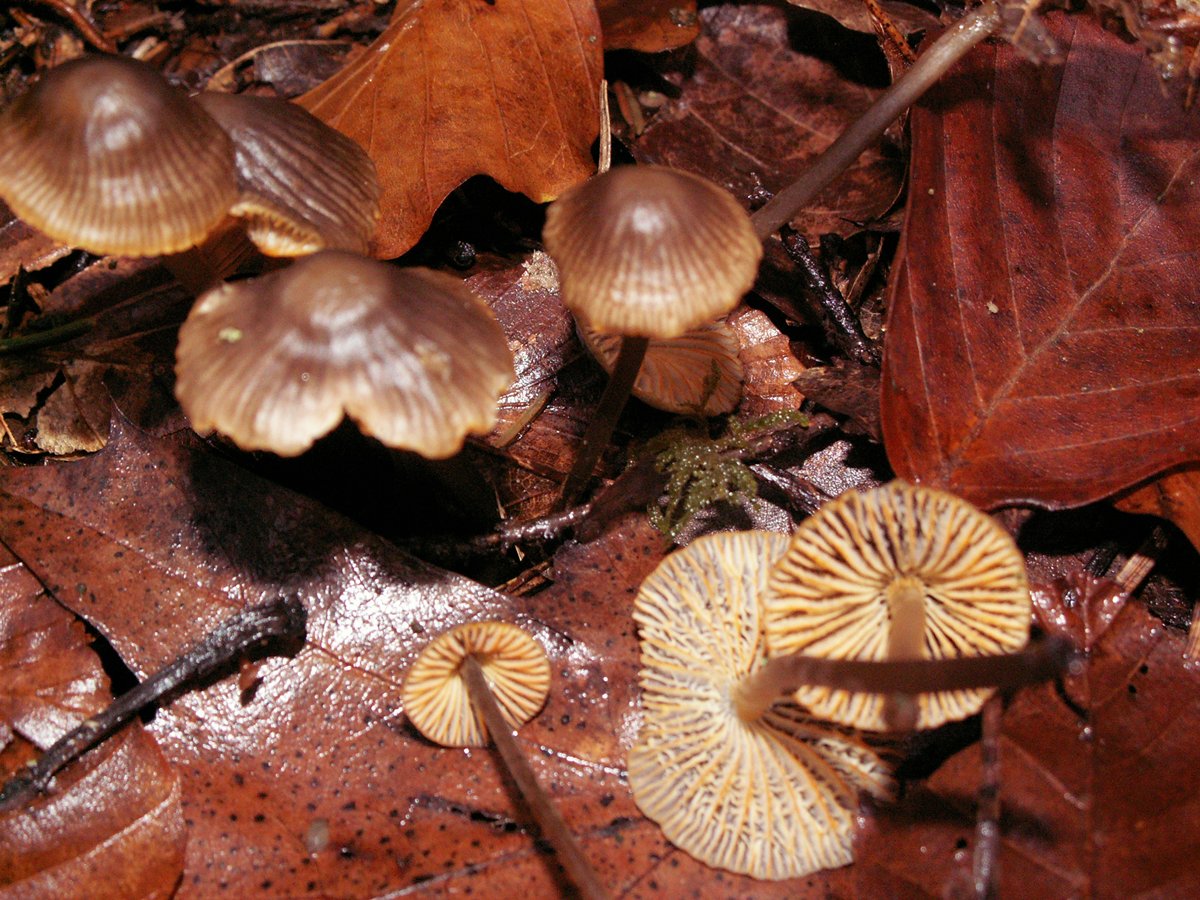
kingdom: Fungi
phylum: Basidiomycota
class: Agaricomycetes
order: Agaricales
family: Mycenaceae
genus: Mycena
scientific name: Mycena aurantiomarginata
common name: orangeægget huesvamp
